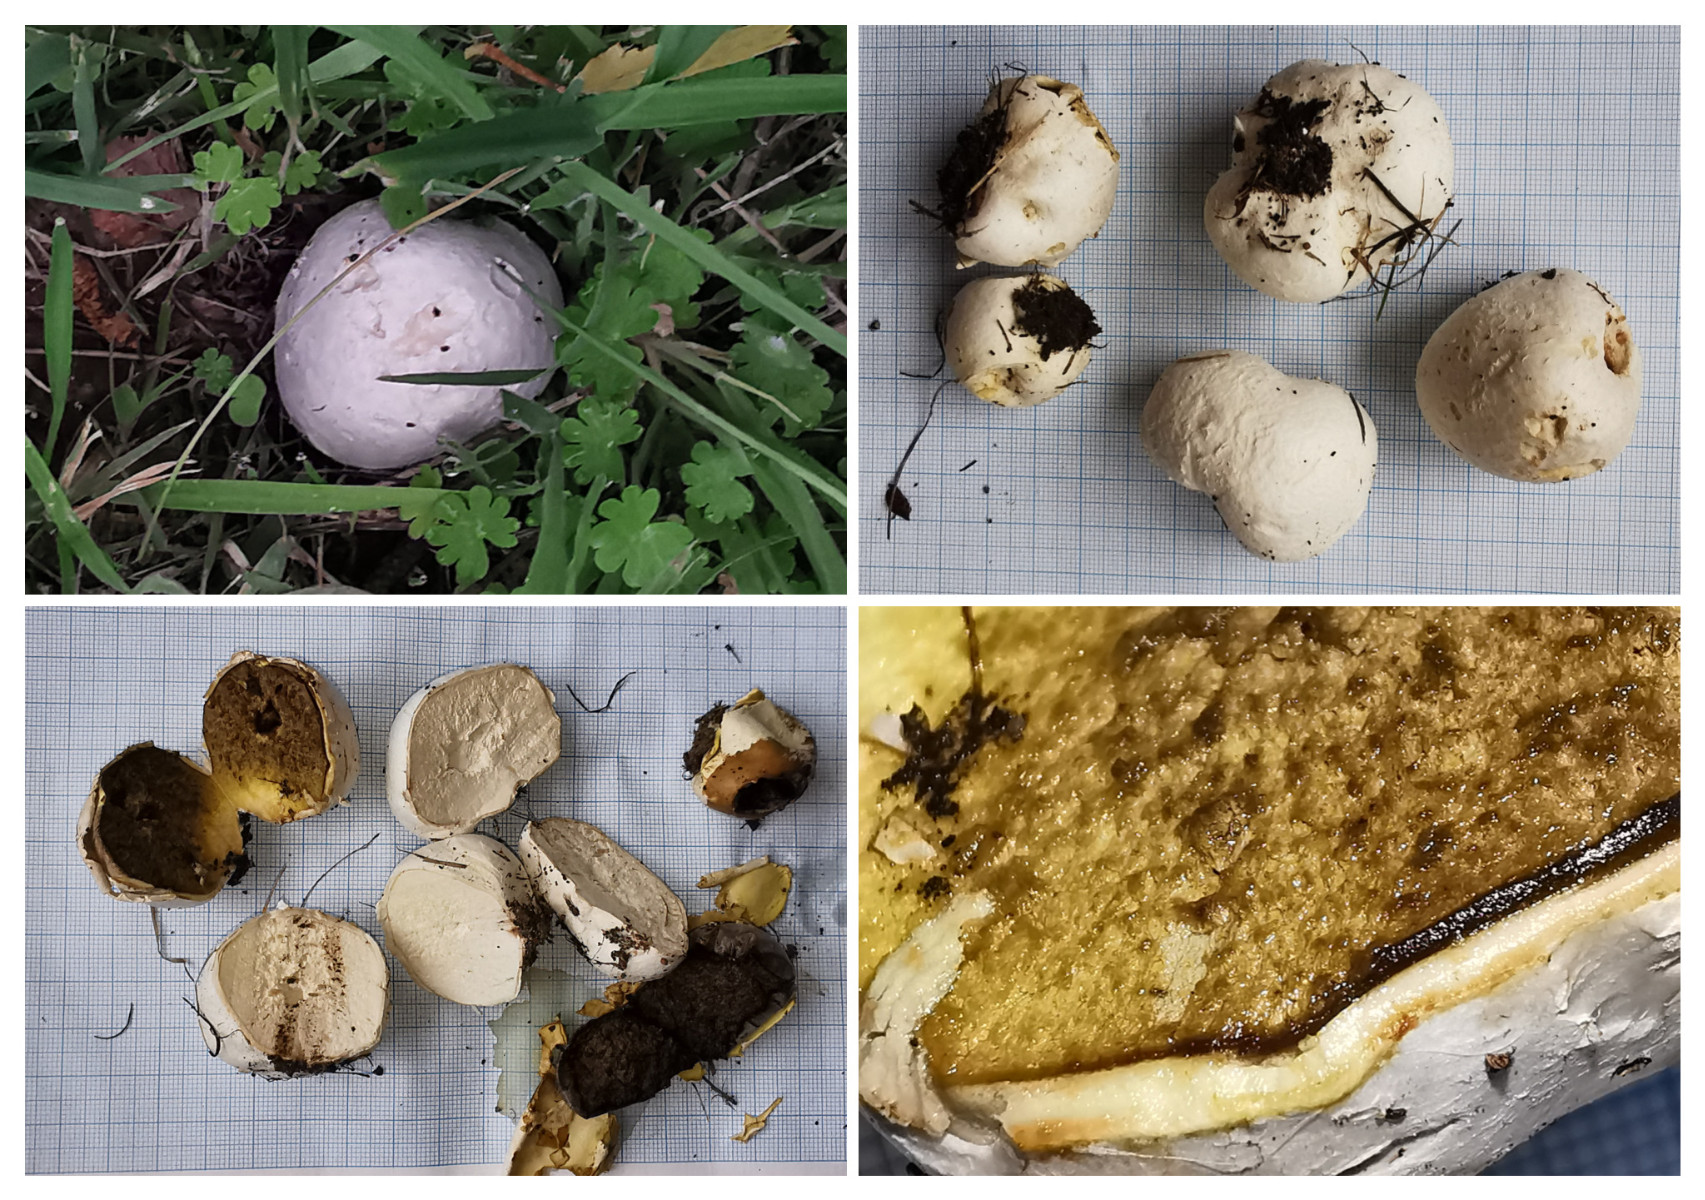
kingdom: Fungi
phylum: Basidiomycota
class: Agaricomycetes
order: Agaricales
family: Lycoperdaceae
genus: Bovista
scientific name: Bovista
